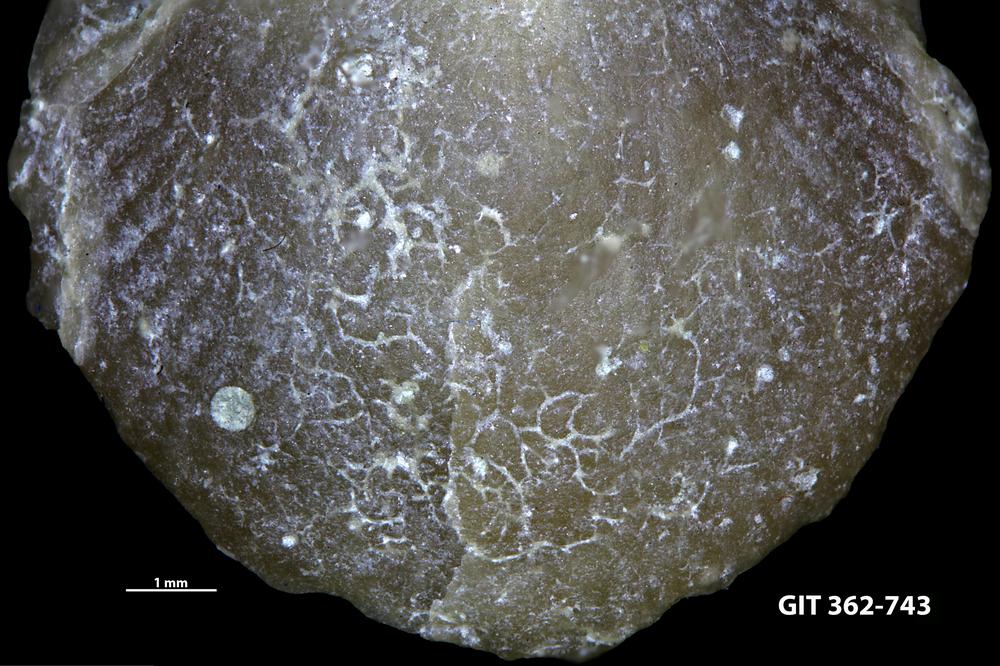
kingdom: Animalia
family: Dendrinidae
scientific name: Dendrinidae
